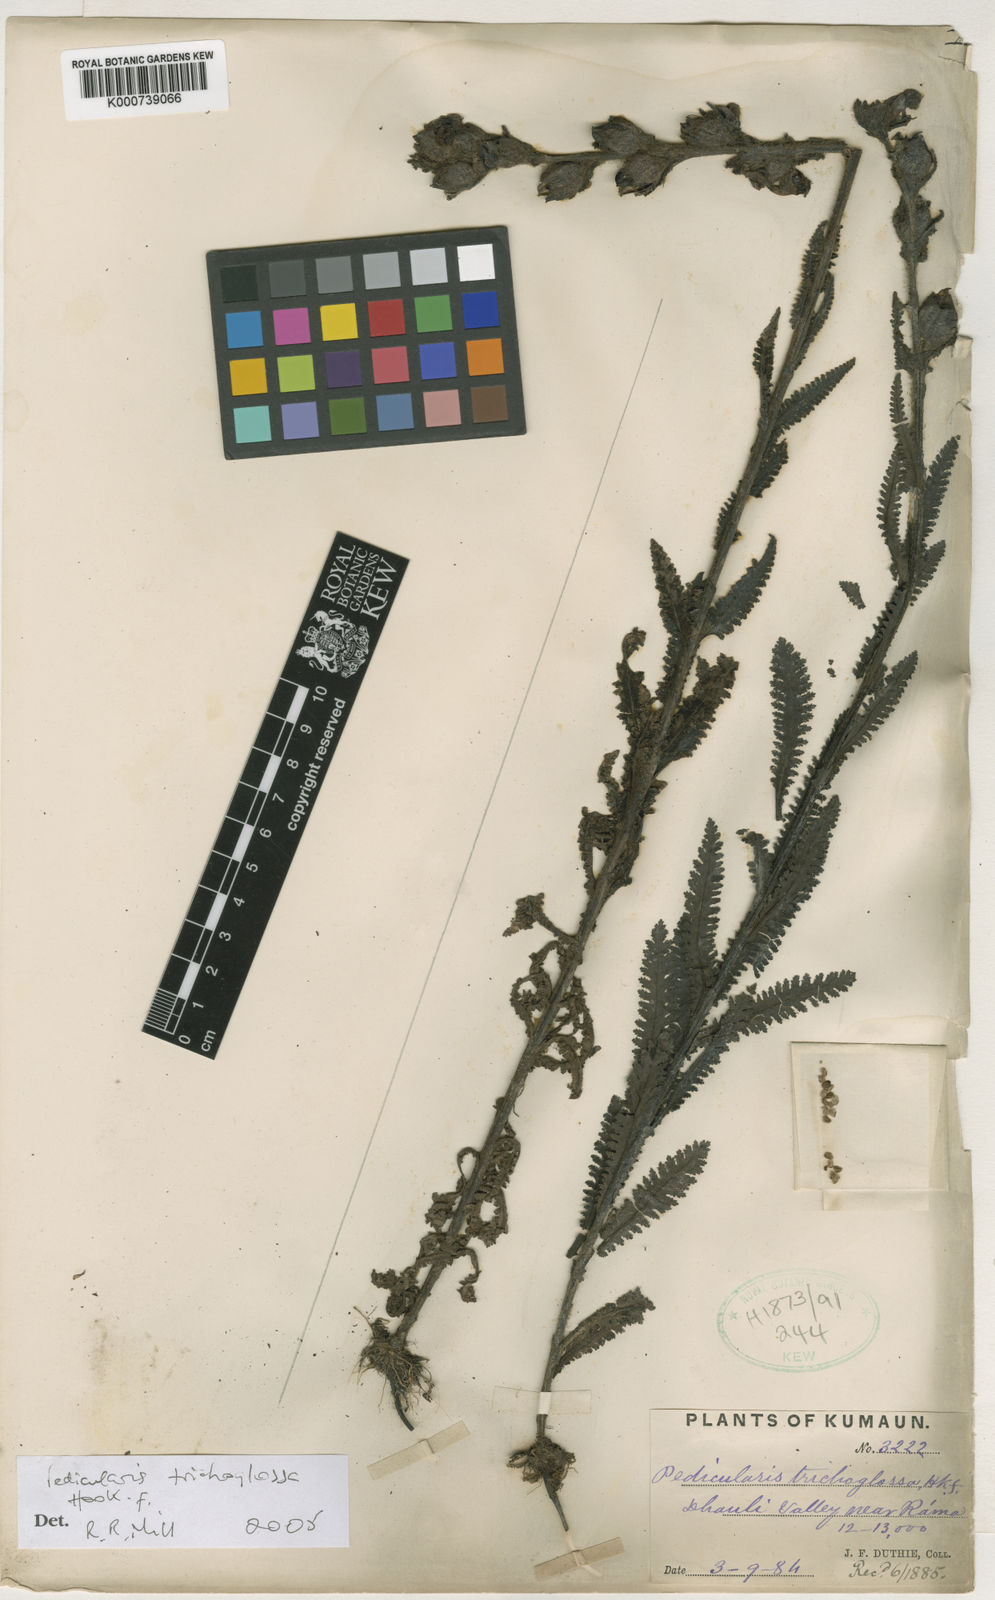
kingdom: Plantae
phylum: Tracheophyta
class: Magnoliopsida
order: Lamiales
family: Orobanchaceae
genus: Pedicularis
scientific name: Pedicularis trichoglossa
